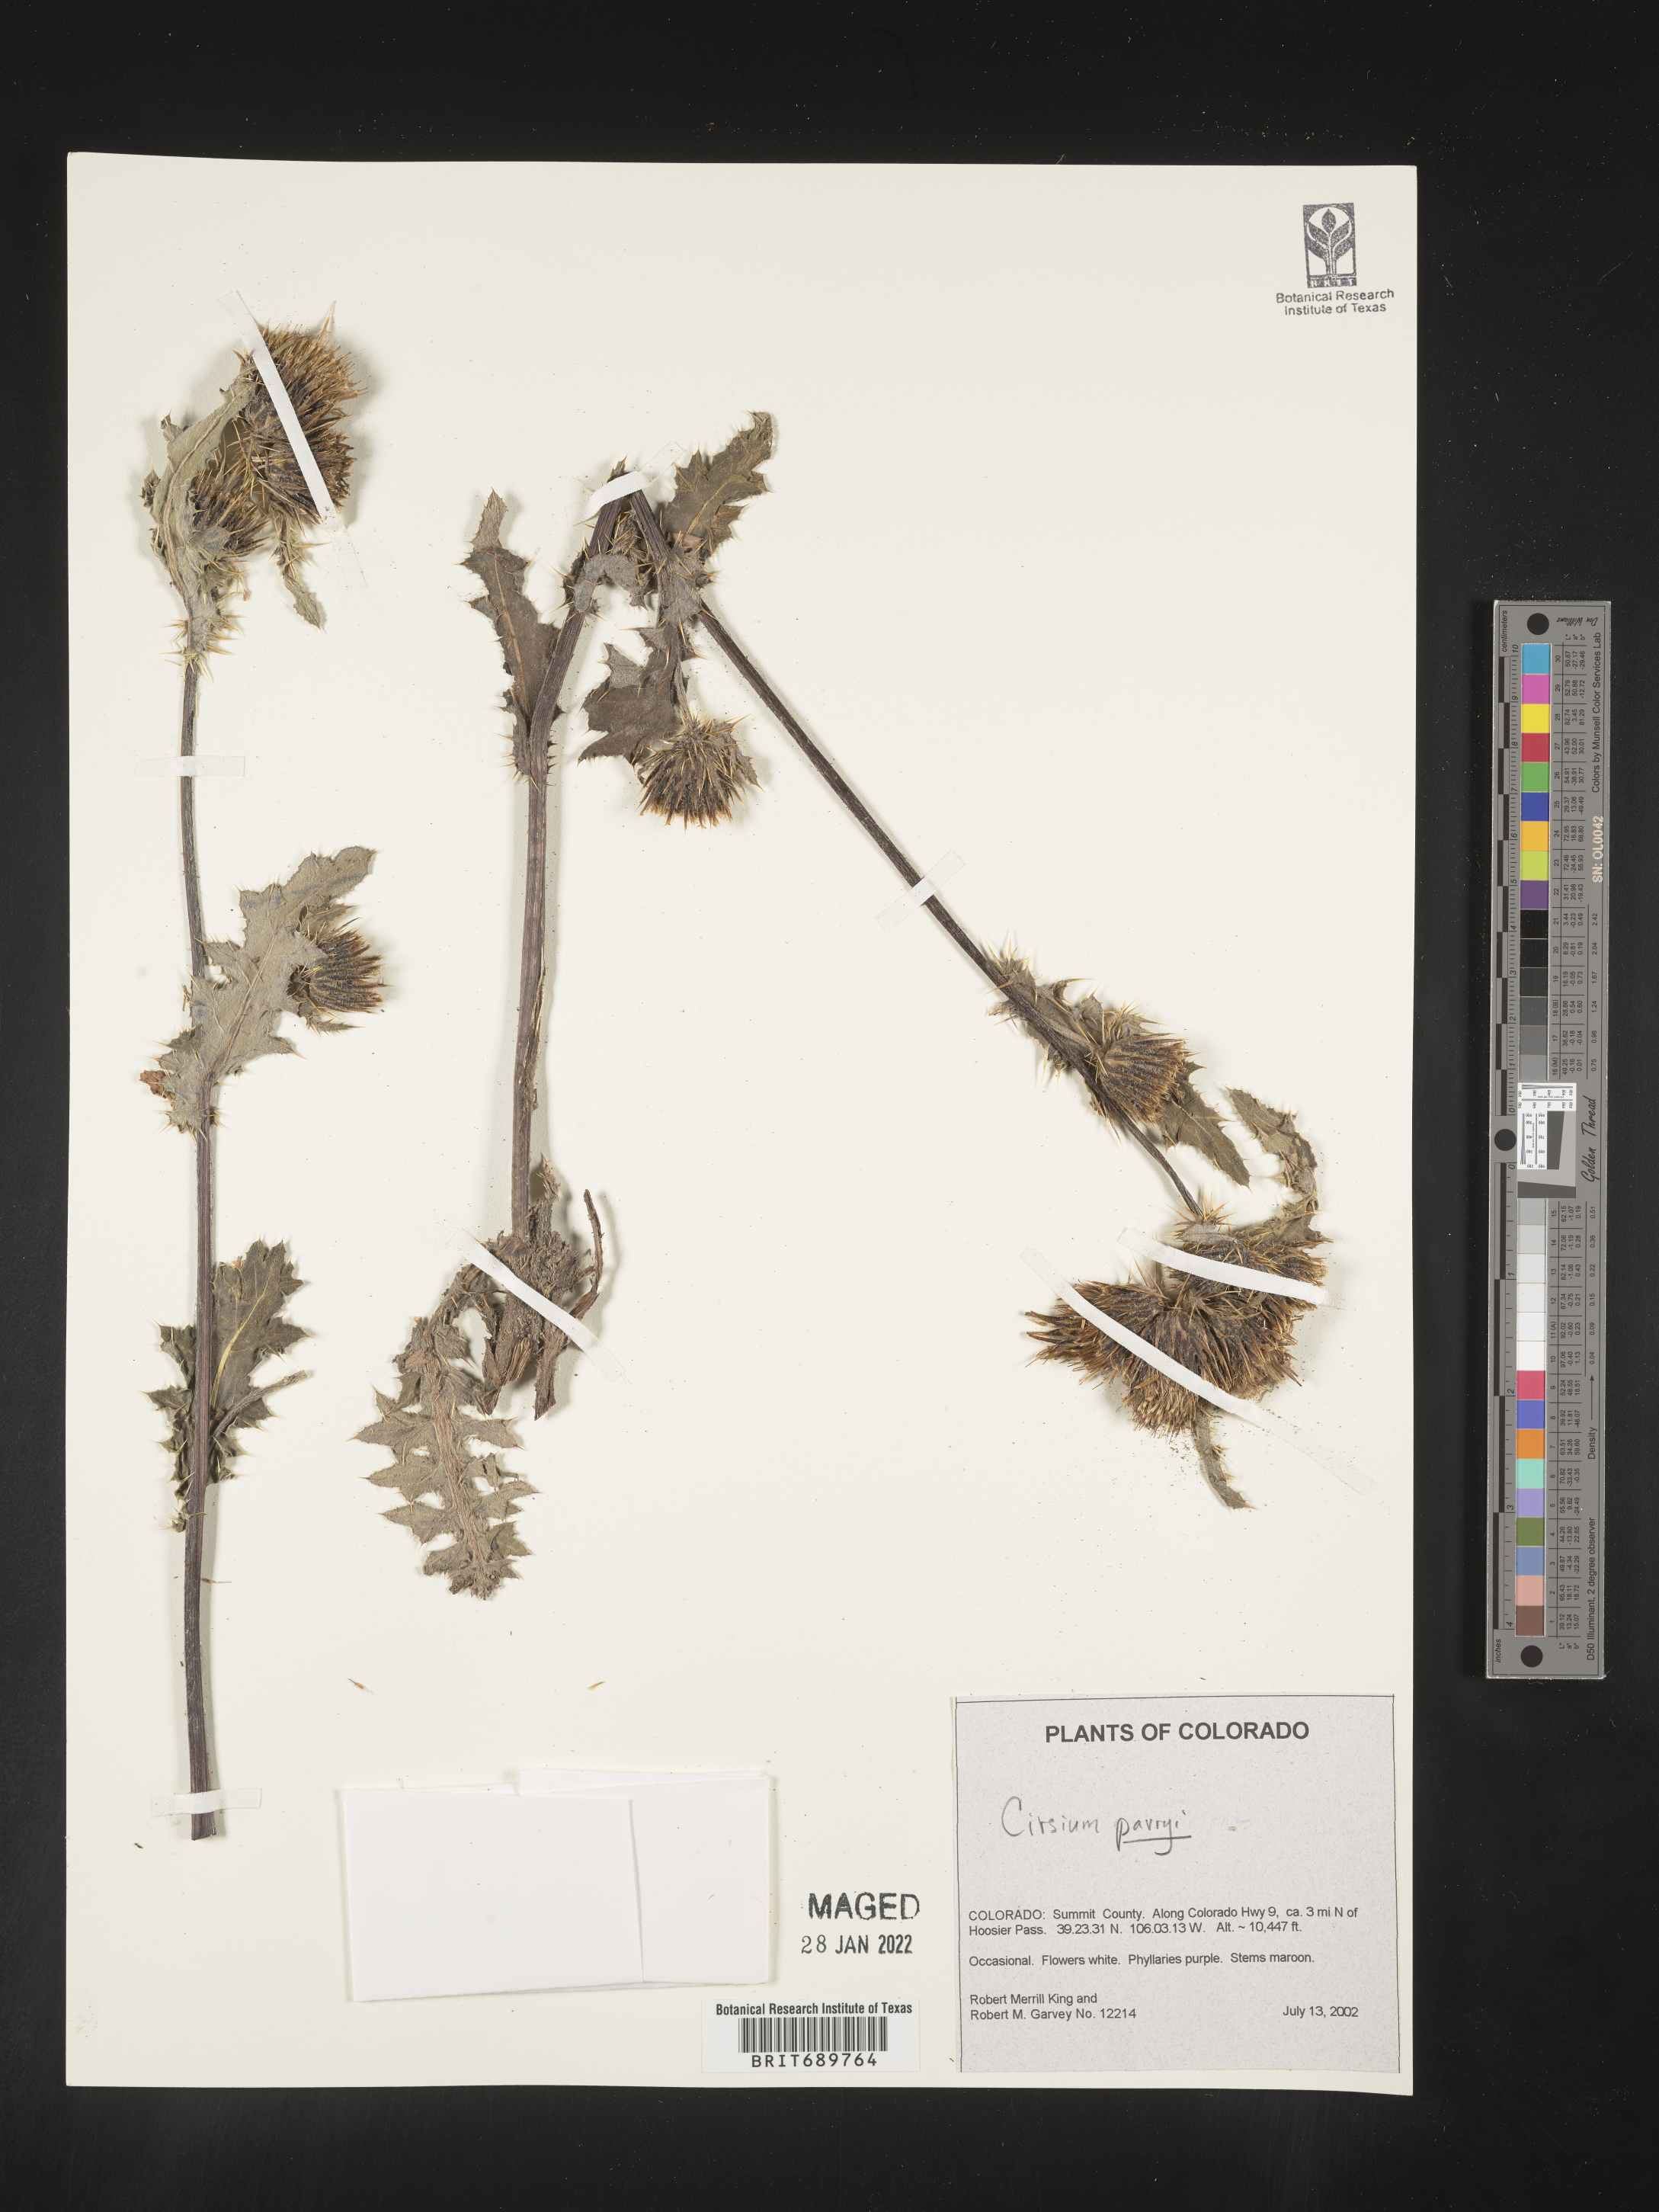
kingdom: Plantae
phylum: Tracheophyta
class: Magnoliopsida
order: Asterales
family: Asteraceae
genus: Cirsium
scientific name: Cirsium parryi
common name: Parry's thistle
